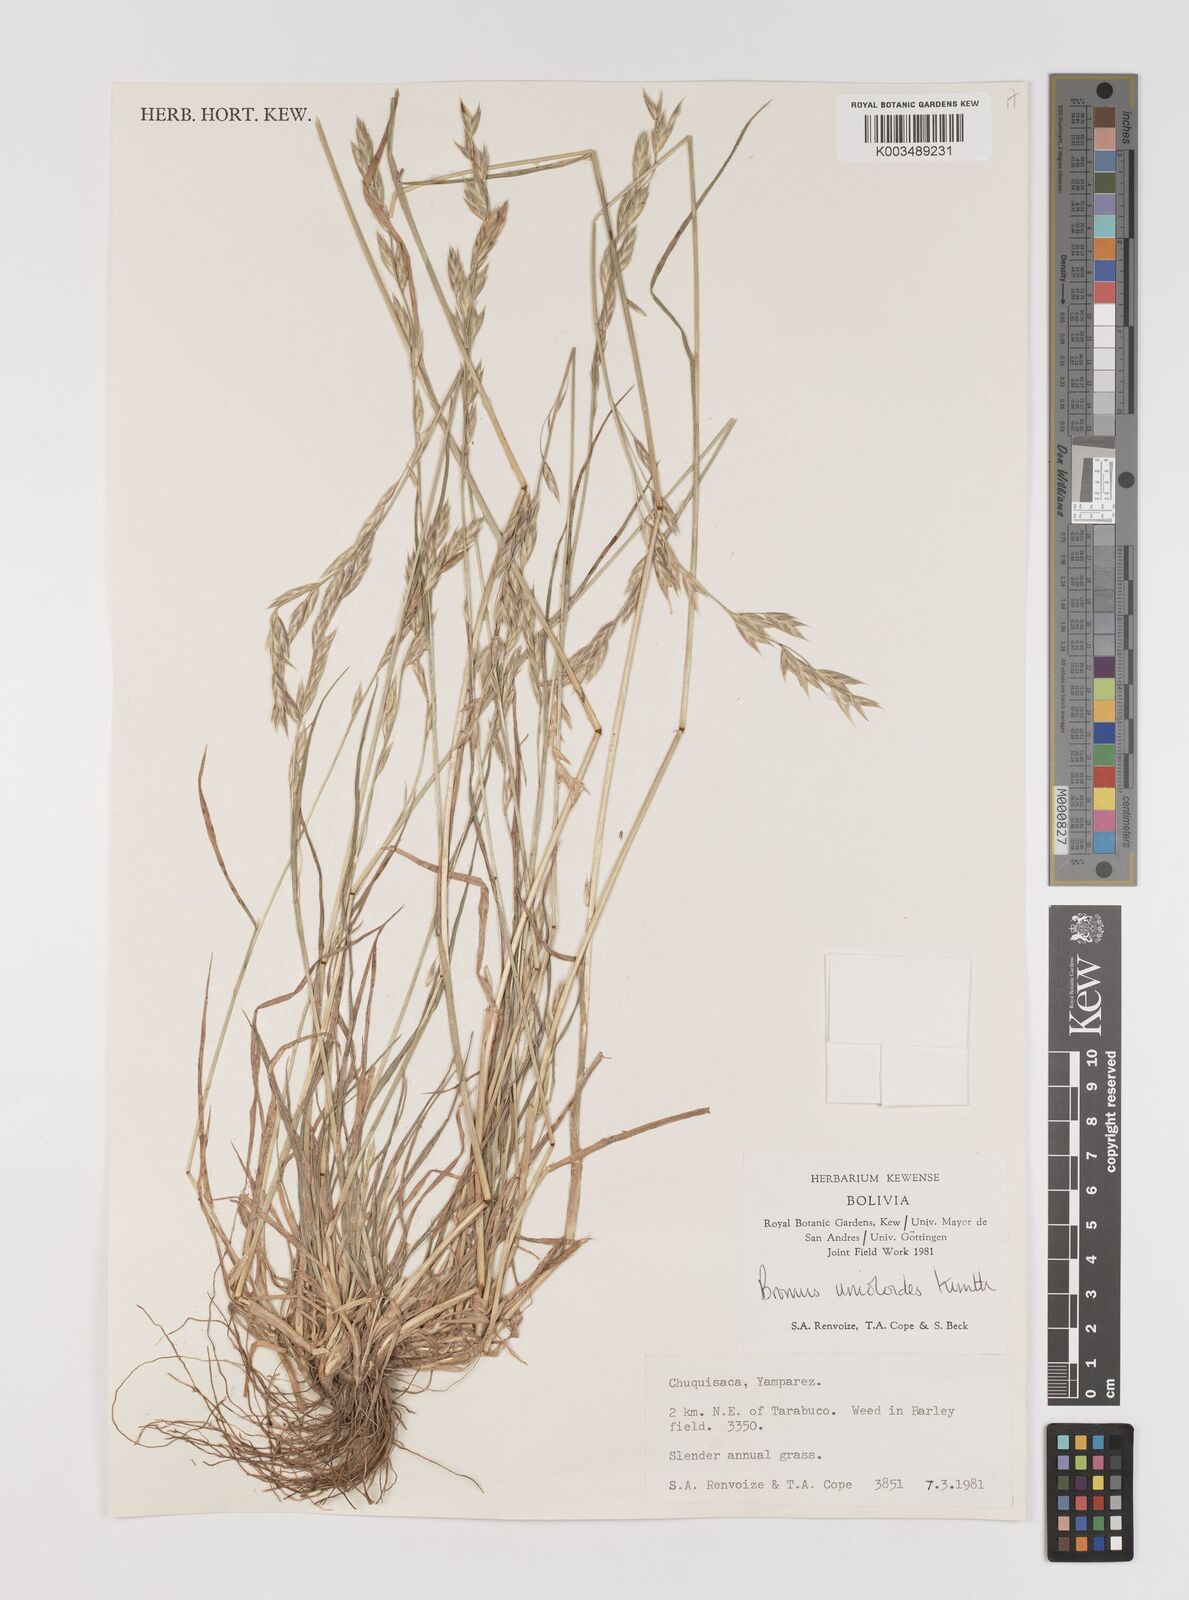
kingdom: Plantae
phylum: Tracheophyta
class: Liliopsida
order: Poales
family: Poaceae
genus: Bromus
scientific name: Bromus catharticus
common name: Rescuegrass
